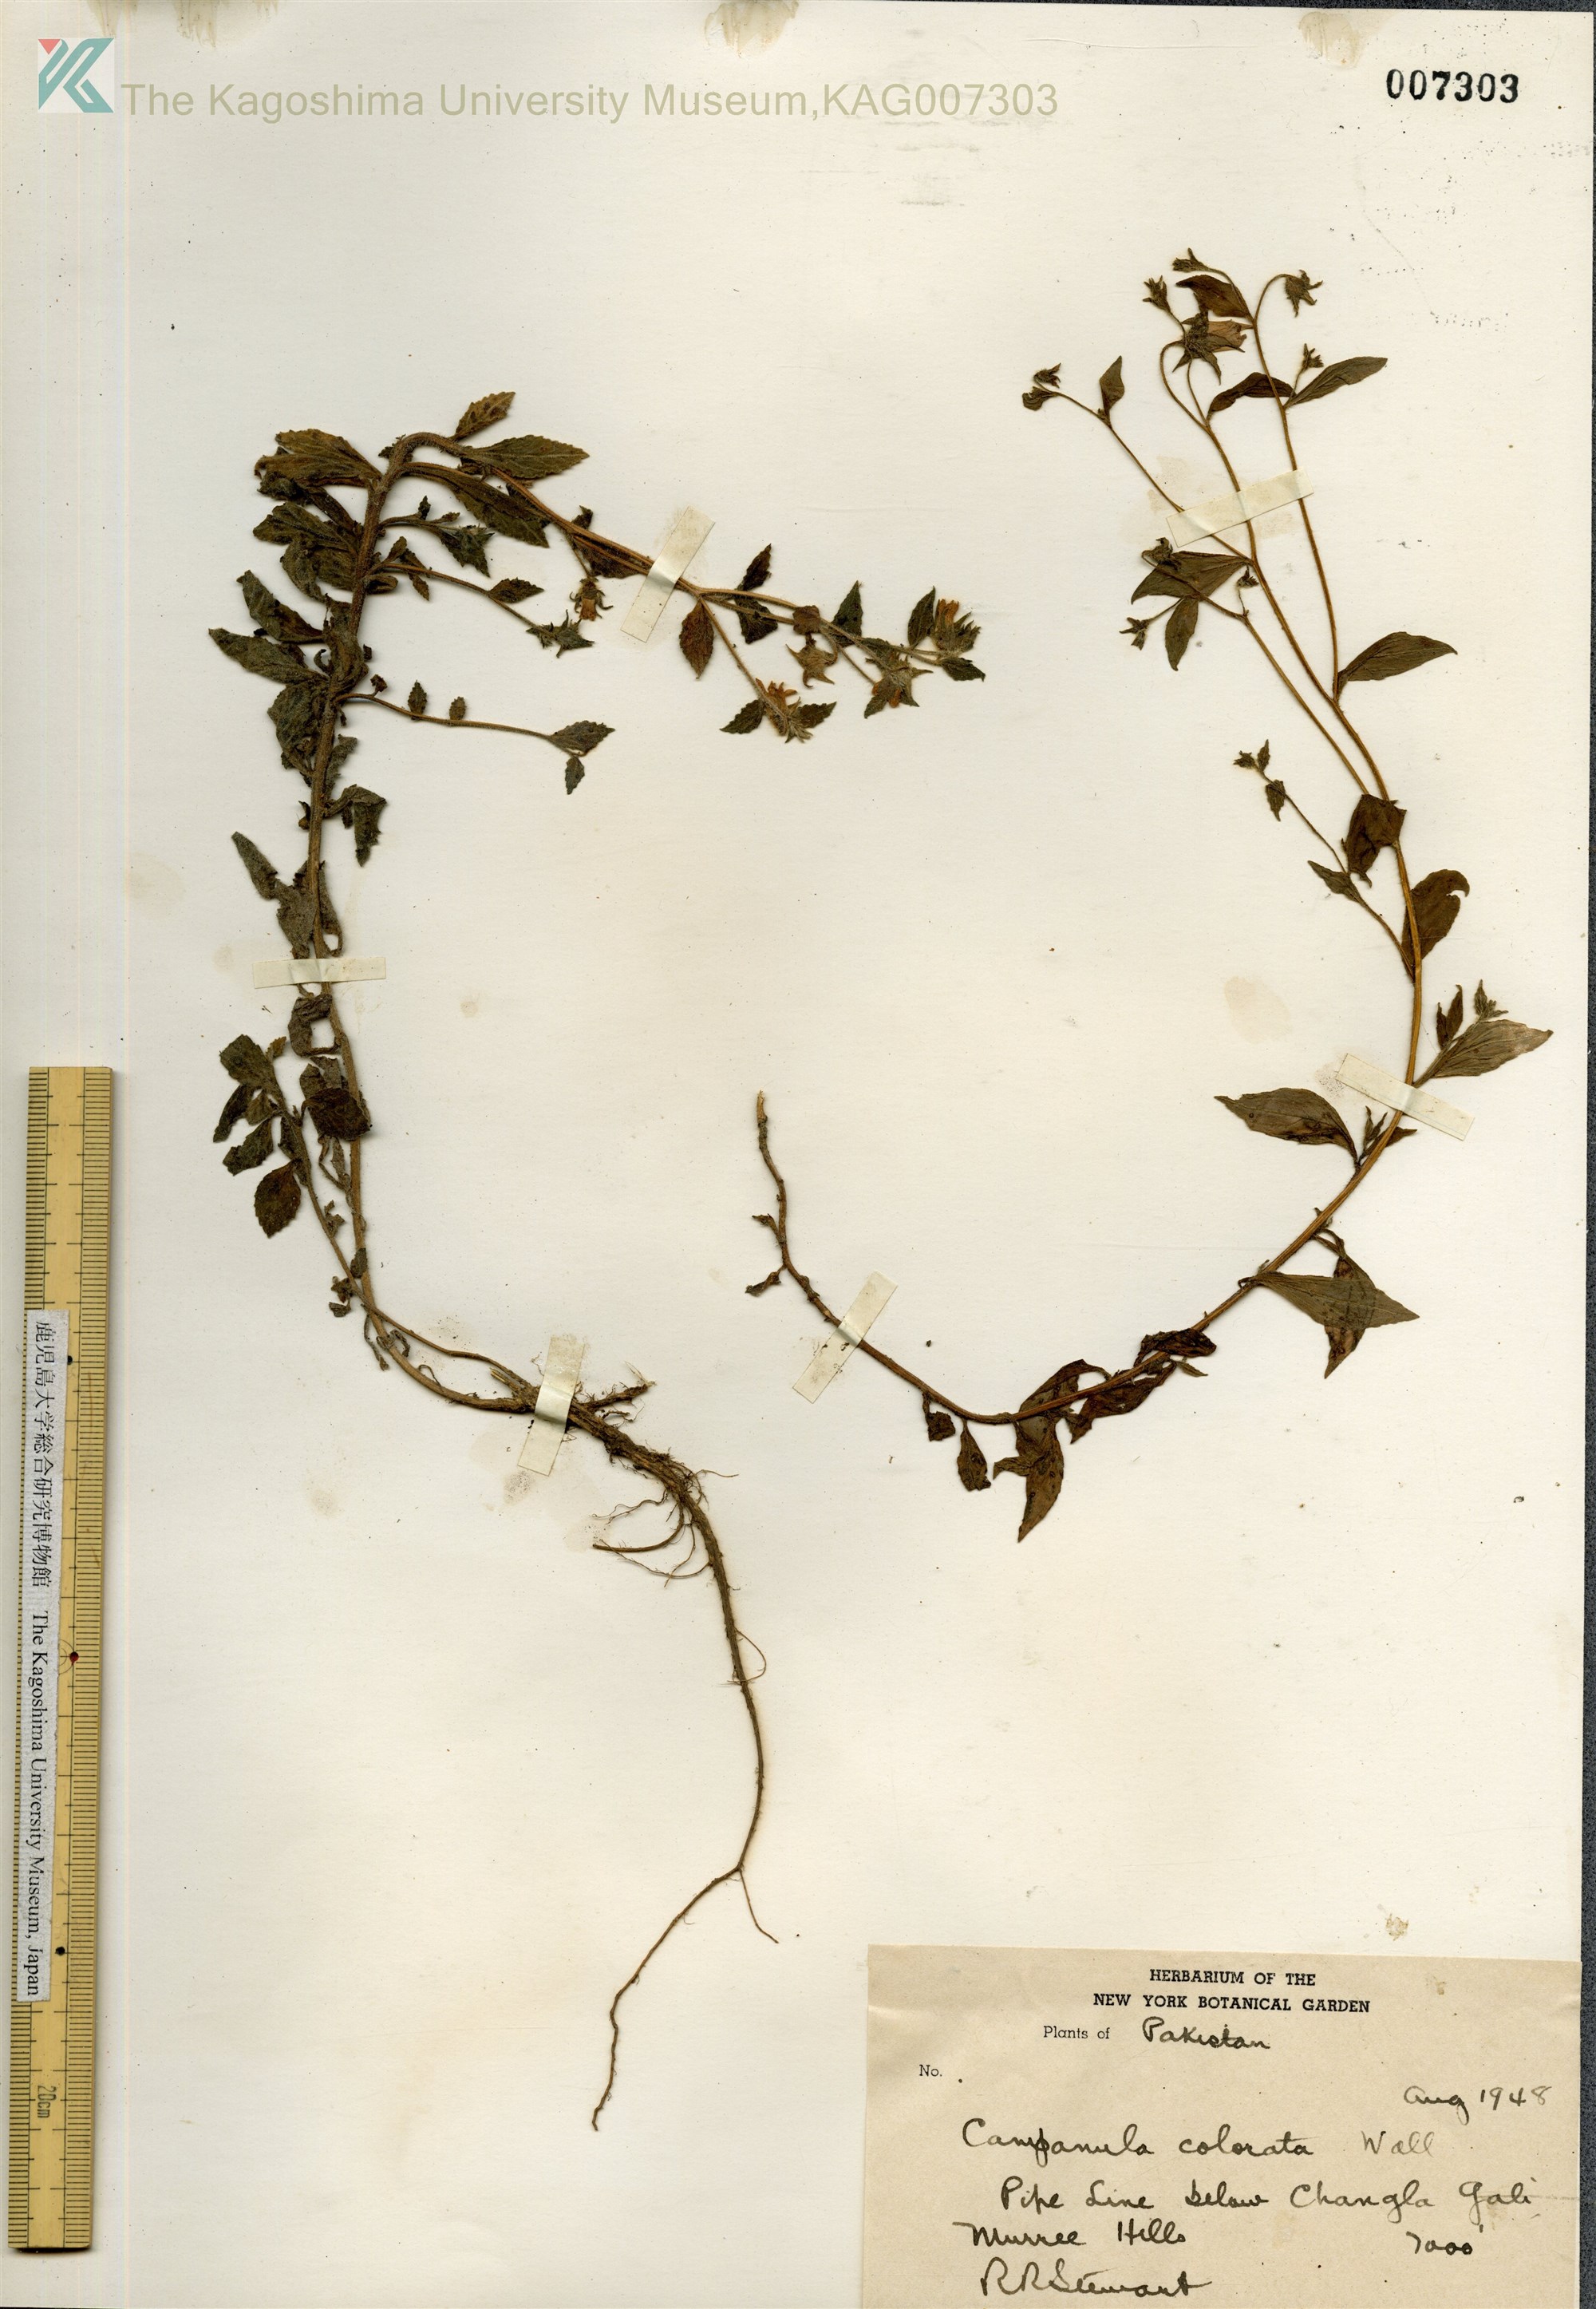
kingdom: Plantae
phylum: Tracheophyta
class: Magnoliopsida
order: Asterales
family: Campanulaceae
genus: Campanula
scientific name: Campanula pallida
